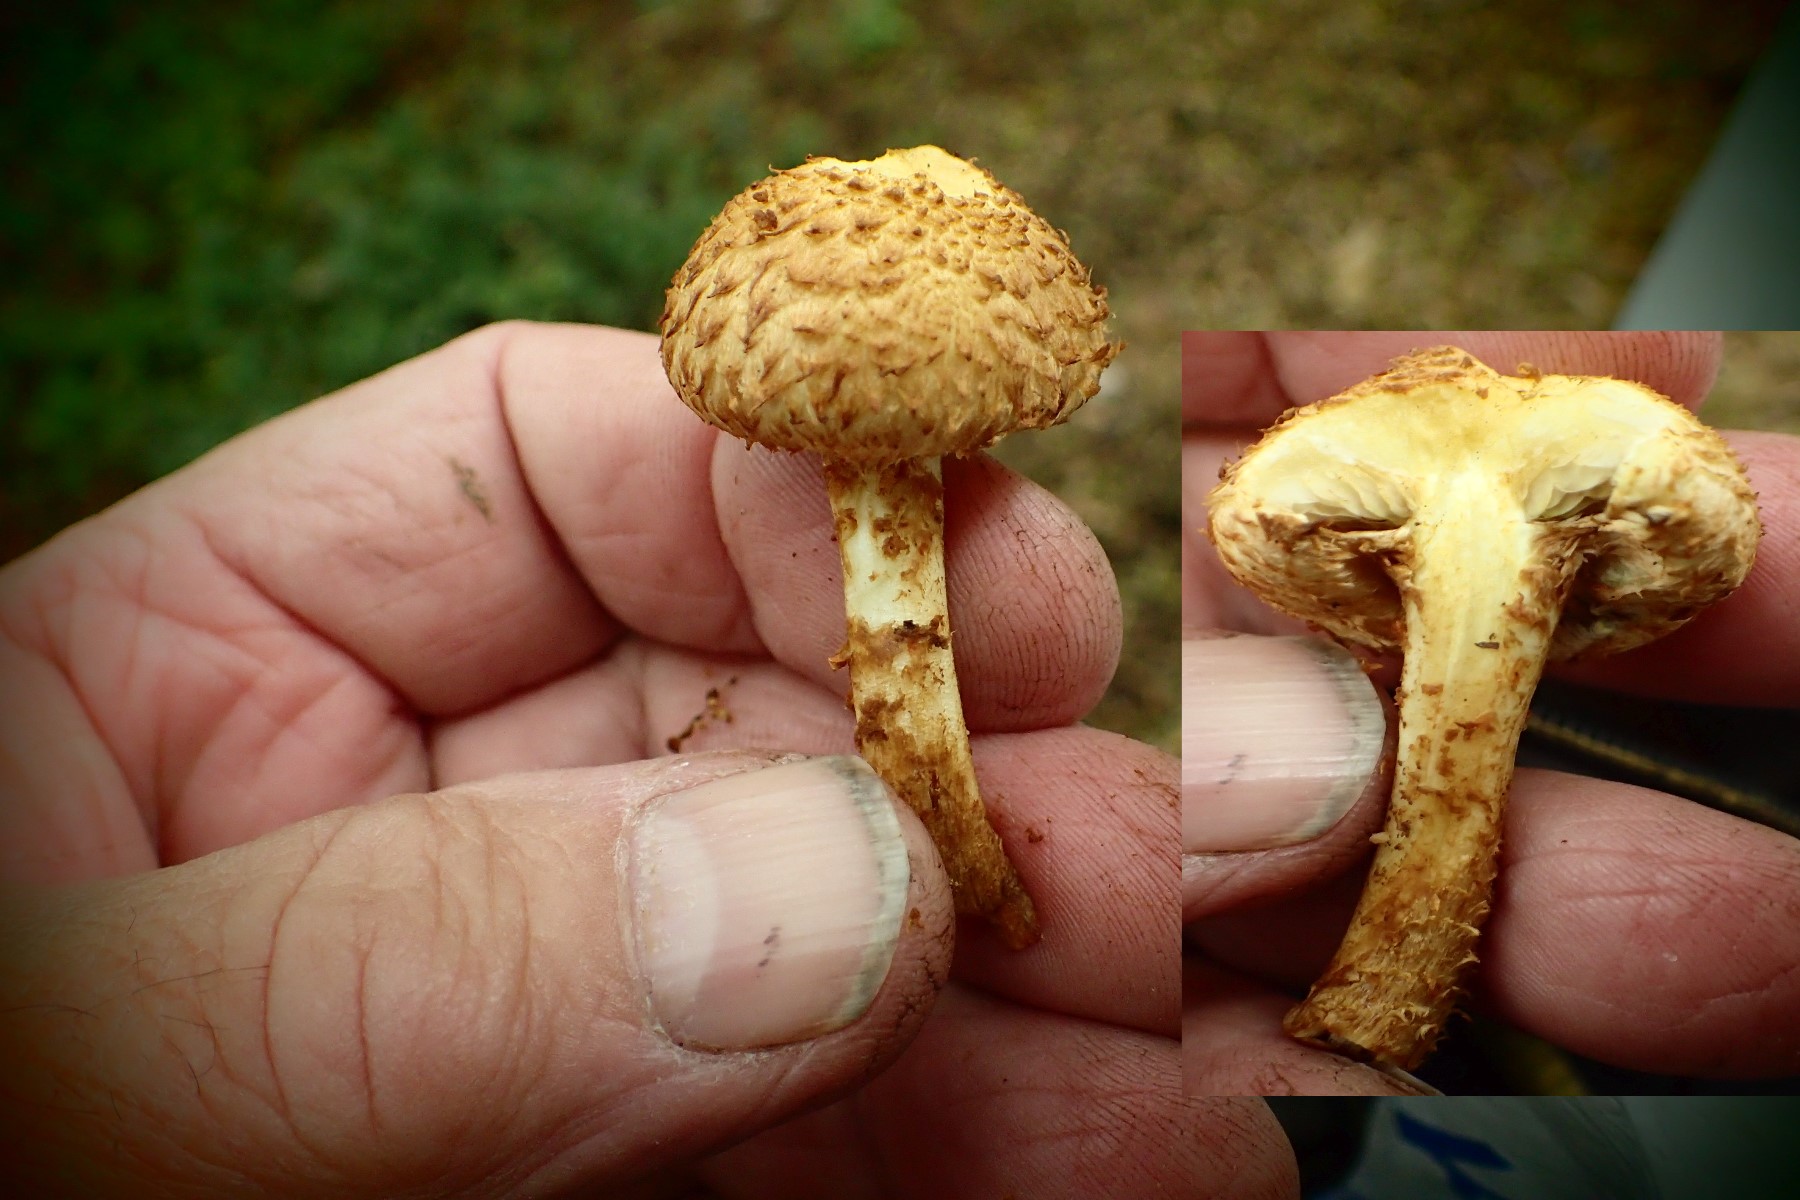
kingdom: Fungi
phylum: Basidiomycota
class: Agaricomycetes
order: Agaricales
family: Strophariaceae
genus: Pholiota
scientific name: Pholiota flammans
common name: flamme-skælhat
